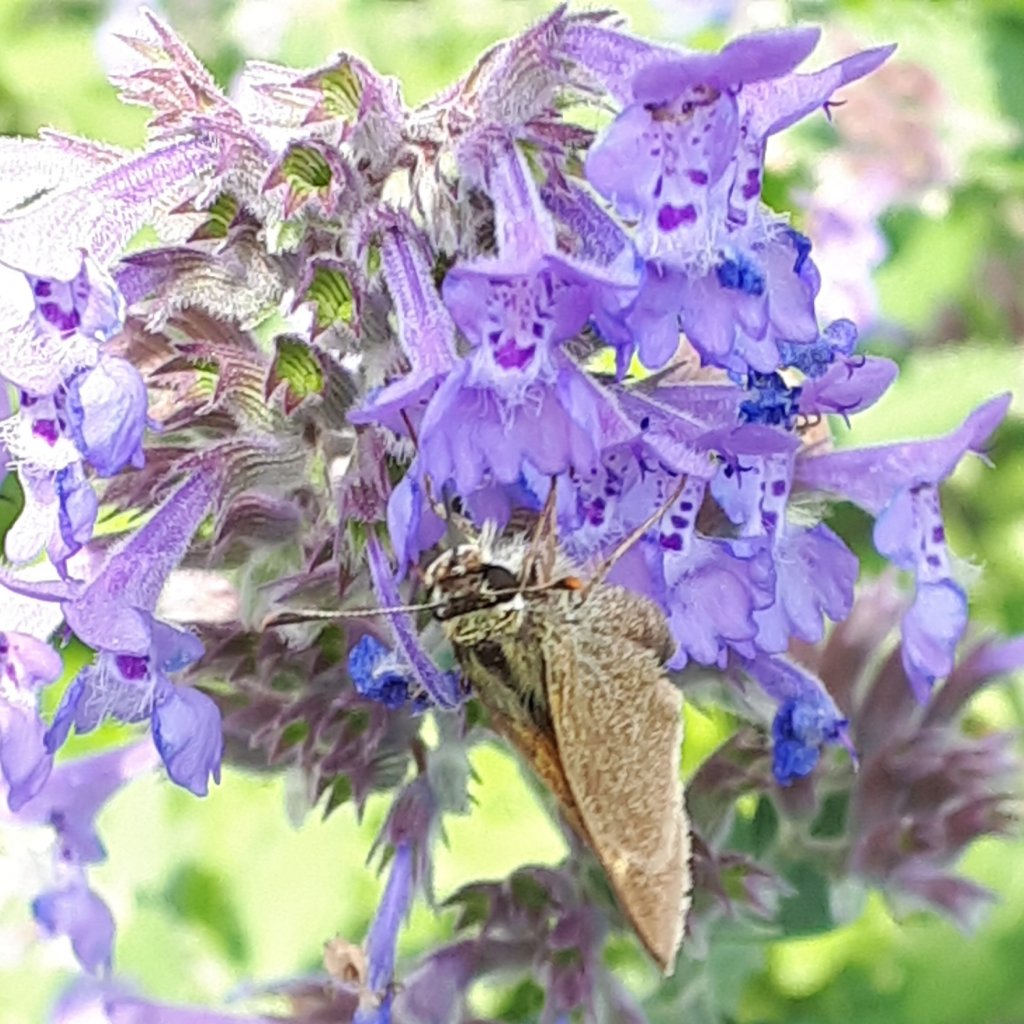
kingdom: Animalia
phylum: Arthropoda
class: Insecta
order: Lepidoptera
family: Hesperiidae
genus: Polites
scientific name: Polites themistocles
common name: Tawny-edged Skipper
